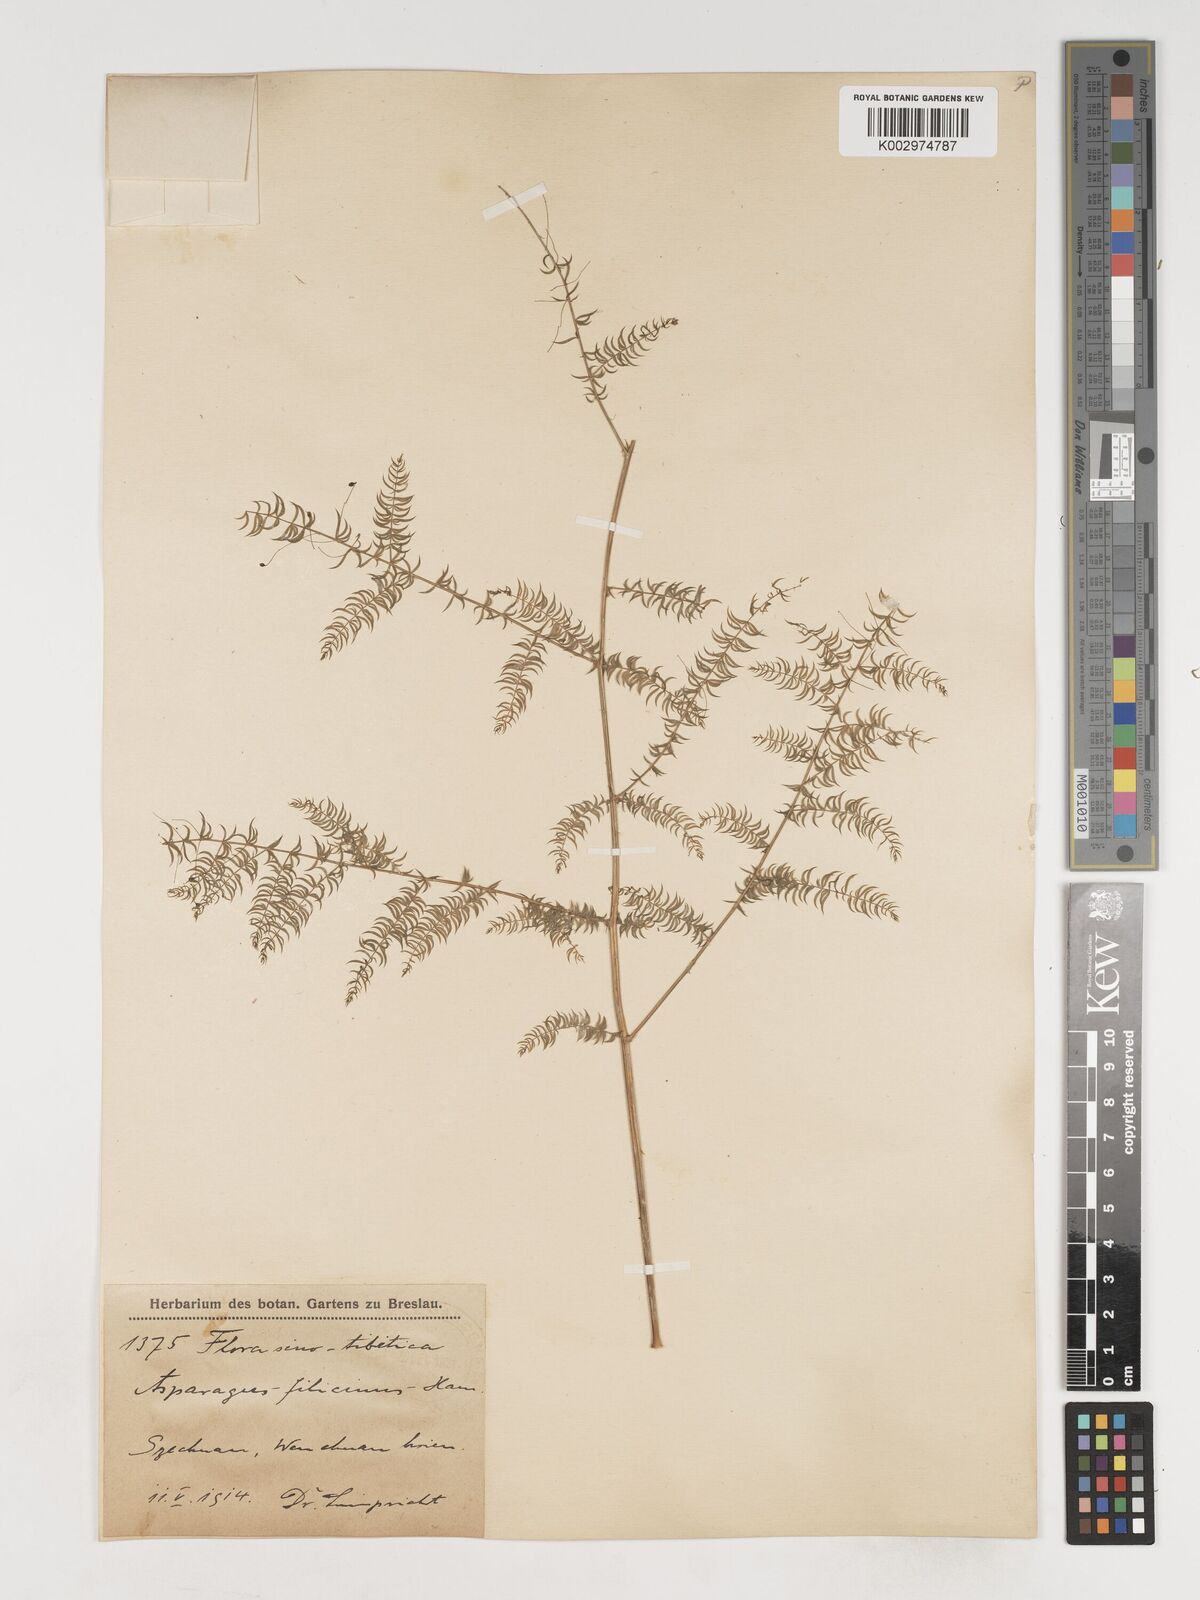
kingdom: Plantae
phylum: Tracheophyta
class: Liliopsida
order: Asparagales
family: Asparagaceae
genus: Asparagus
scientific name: Asparagus filicinus
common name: Fern asparagus
